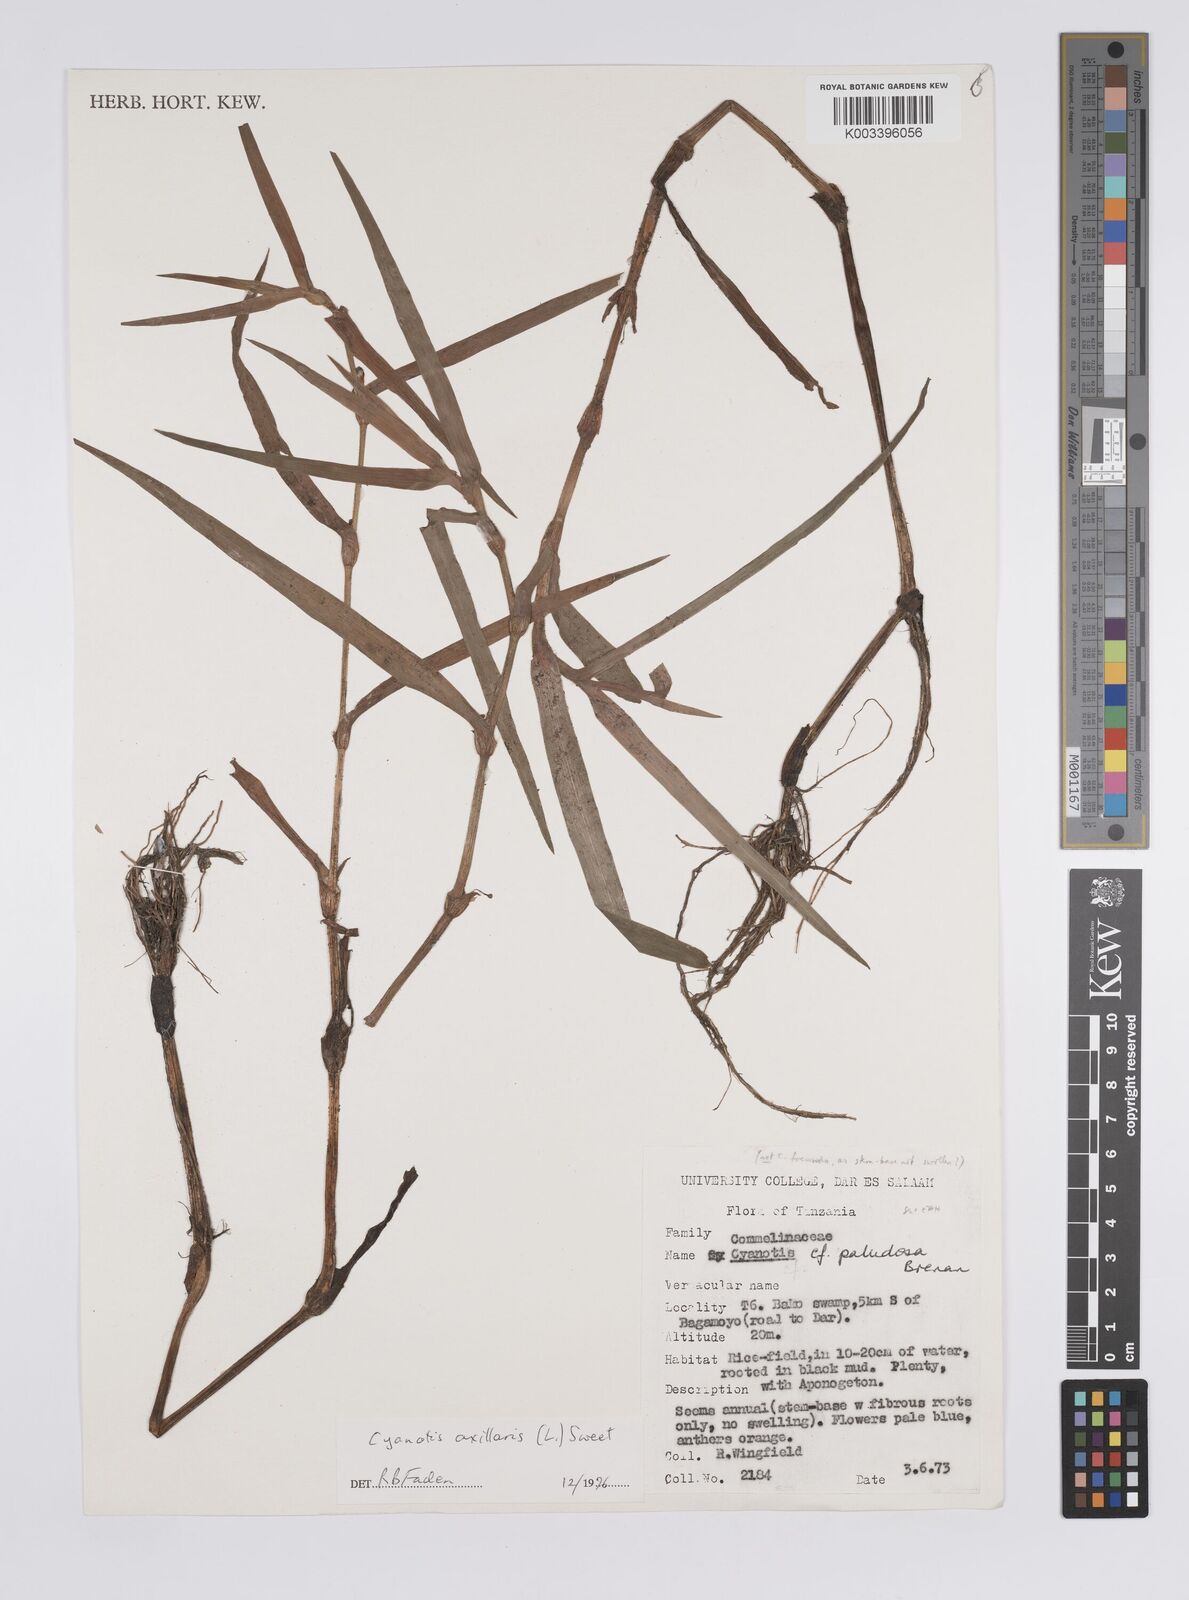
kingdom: Plantae
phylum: Tracheophyta
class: Liliopsida
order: Commelinales
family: Commelinaceae
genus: Cyanotis
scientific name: Cyanotis axillaris
